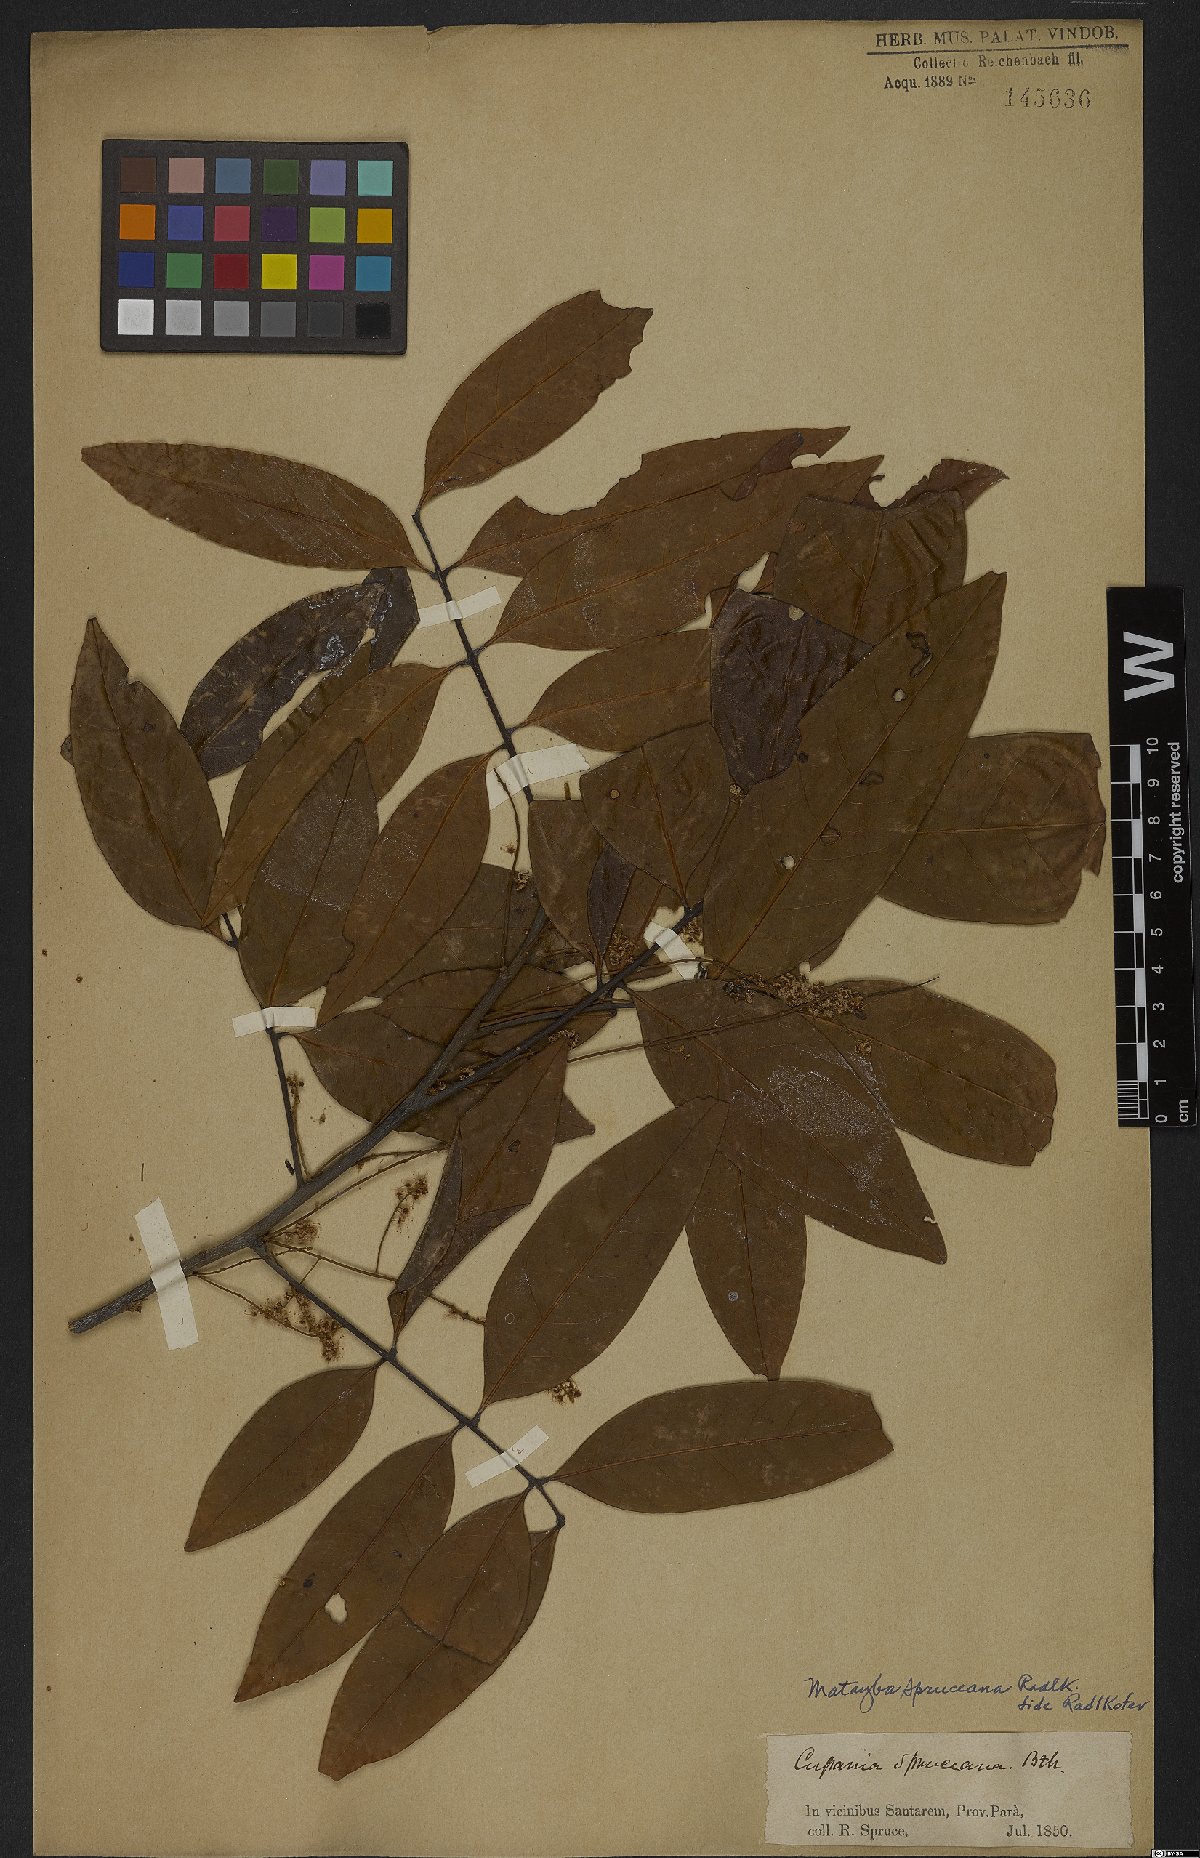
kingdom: Plantae
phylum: Tracheophyta
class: Magnoliopsida
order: Sapindales
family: Sapindaceae
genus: Matayba
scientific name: Matayba spruceana
